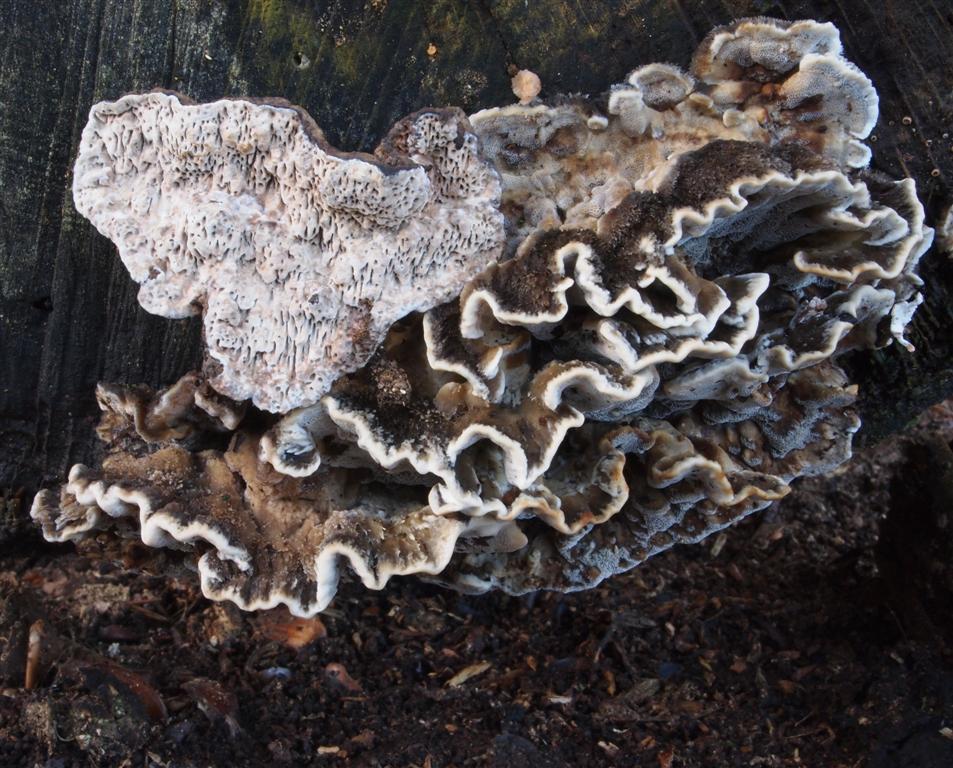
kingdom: Fungi
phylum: Basidiomycota
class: Agaricomycetes
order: Polyporales
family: Polyporaceae
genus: Podofomes
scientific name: Podofomes mollis
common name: blød begporesvamp
